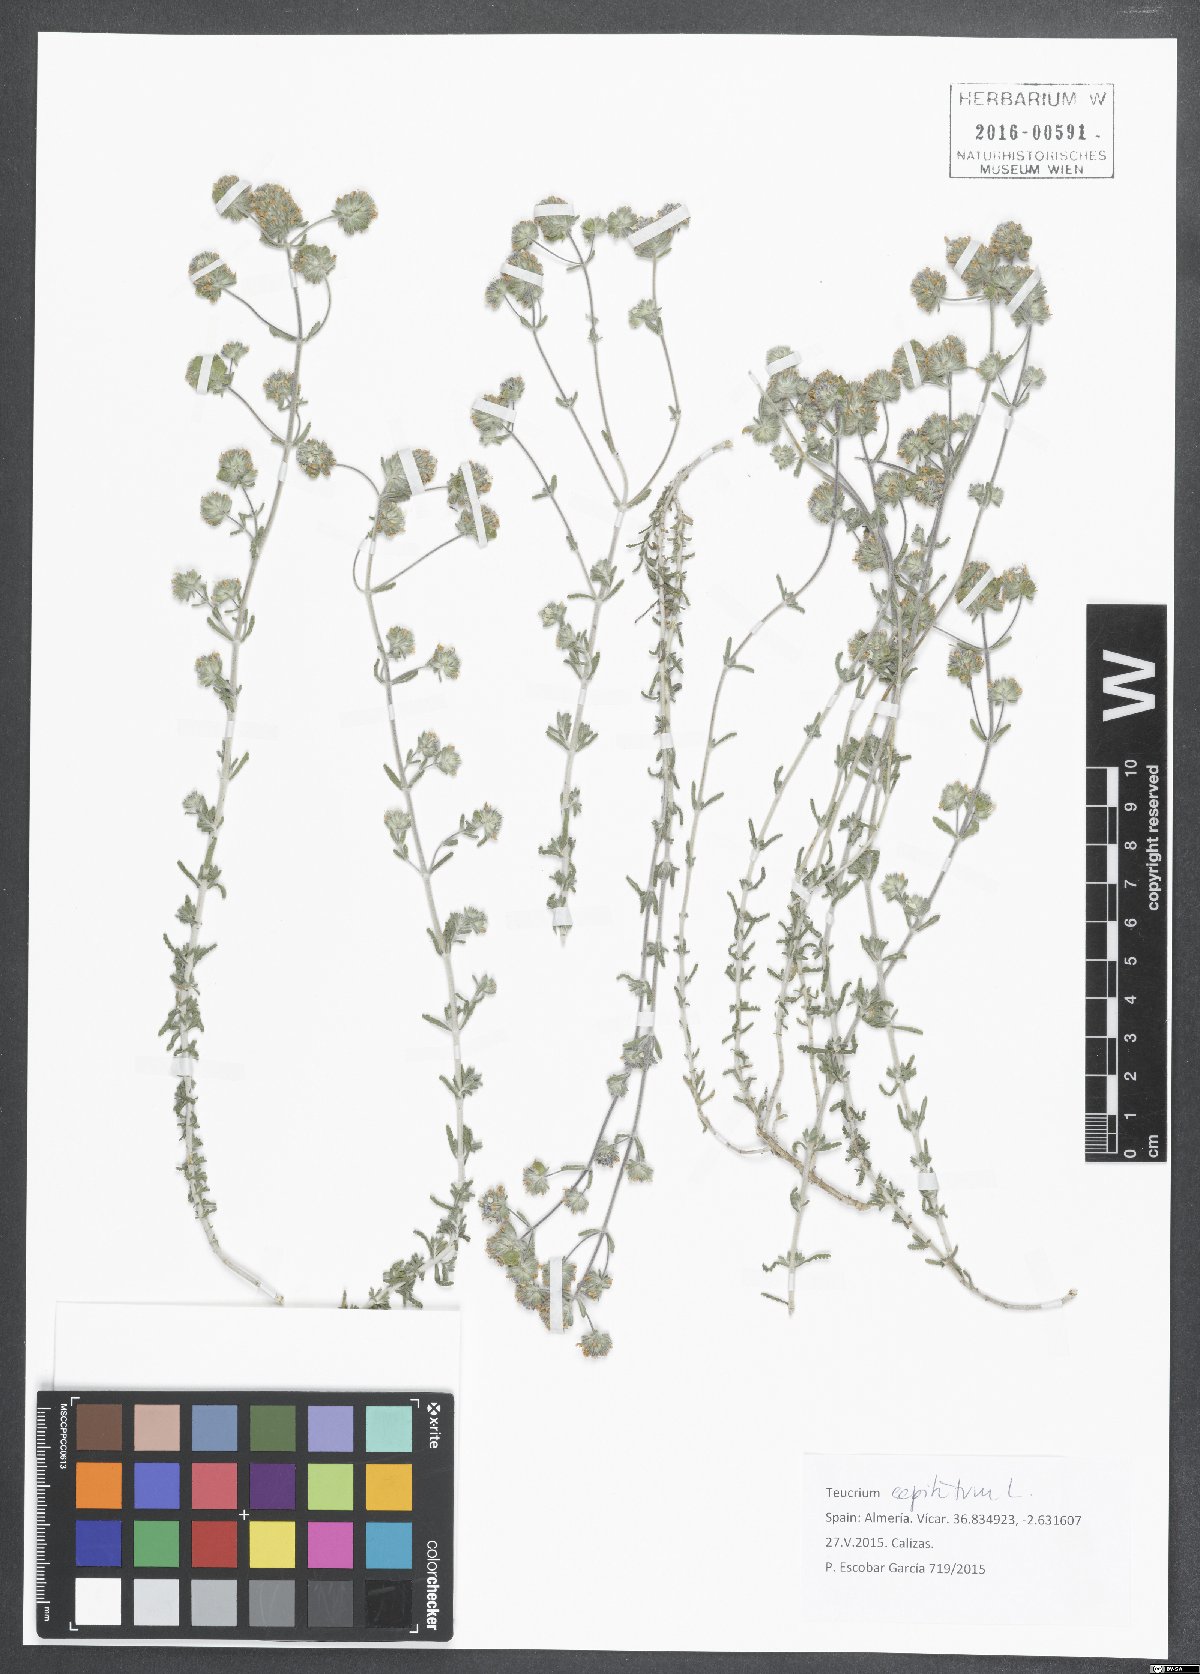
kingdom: Plantae
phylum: Tracheophyta
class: Magnoliopsida
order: Lamiales
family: Lamiaceae
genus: Teucrium
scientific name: Teucrium capitatum
